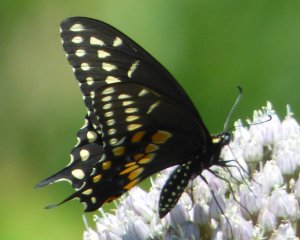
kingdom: Animalia
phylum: Arthropoda
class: Insecta
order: Lepidoptera
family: Papilionidae
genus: Papilio
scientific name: Papilio polyxenes
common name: Black Swallowtail
